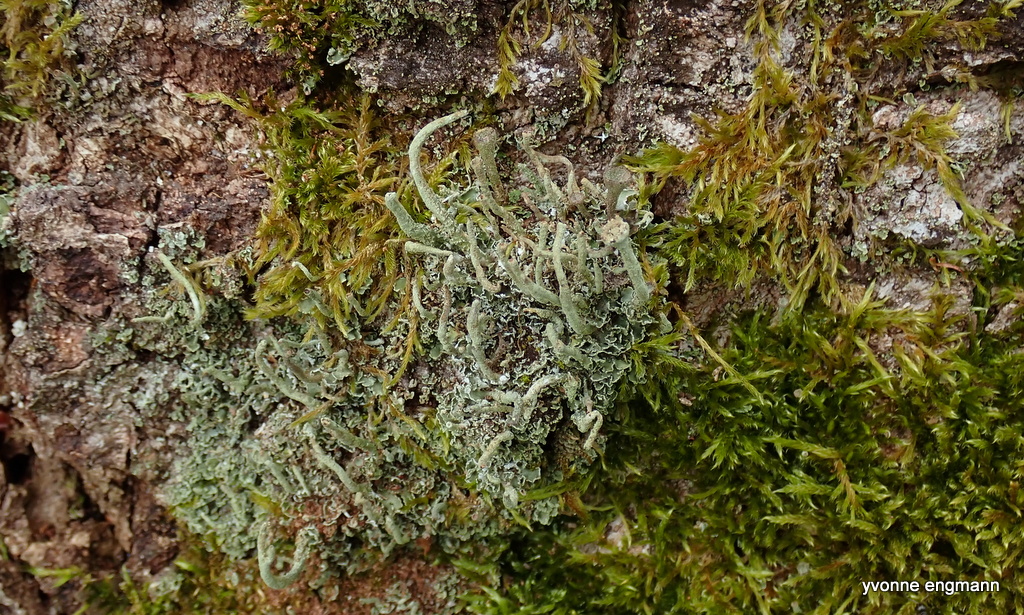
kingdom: Fungi
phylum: Ascomycota
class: Lecanoromycetes
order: Lecanorales
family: Cladoniaceae
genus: Cladonia
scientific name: Cladonia
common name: brungrøn bægerlav
